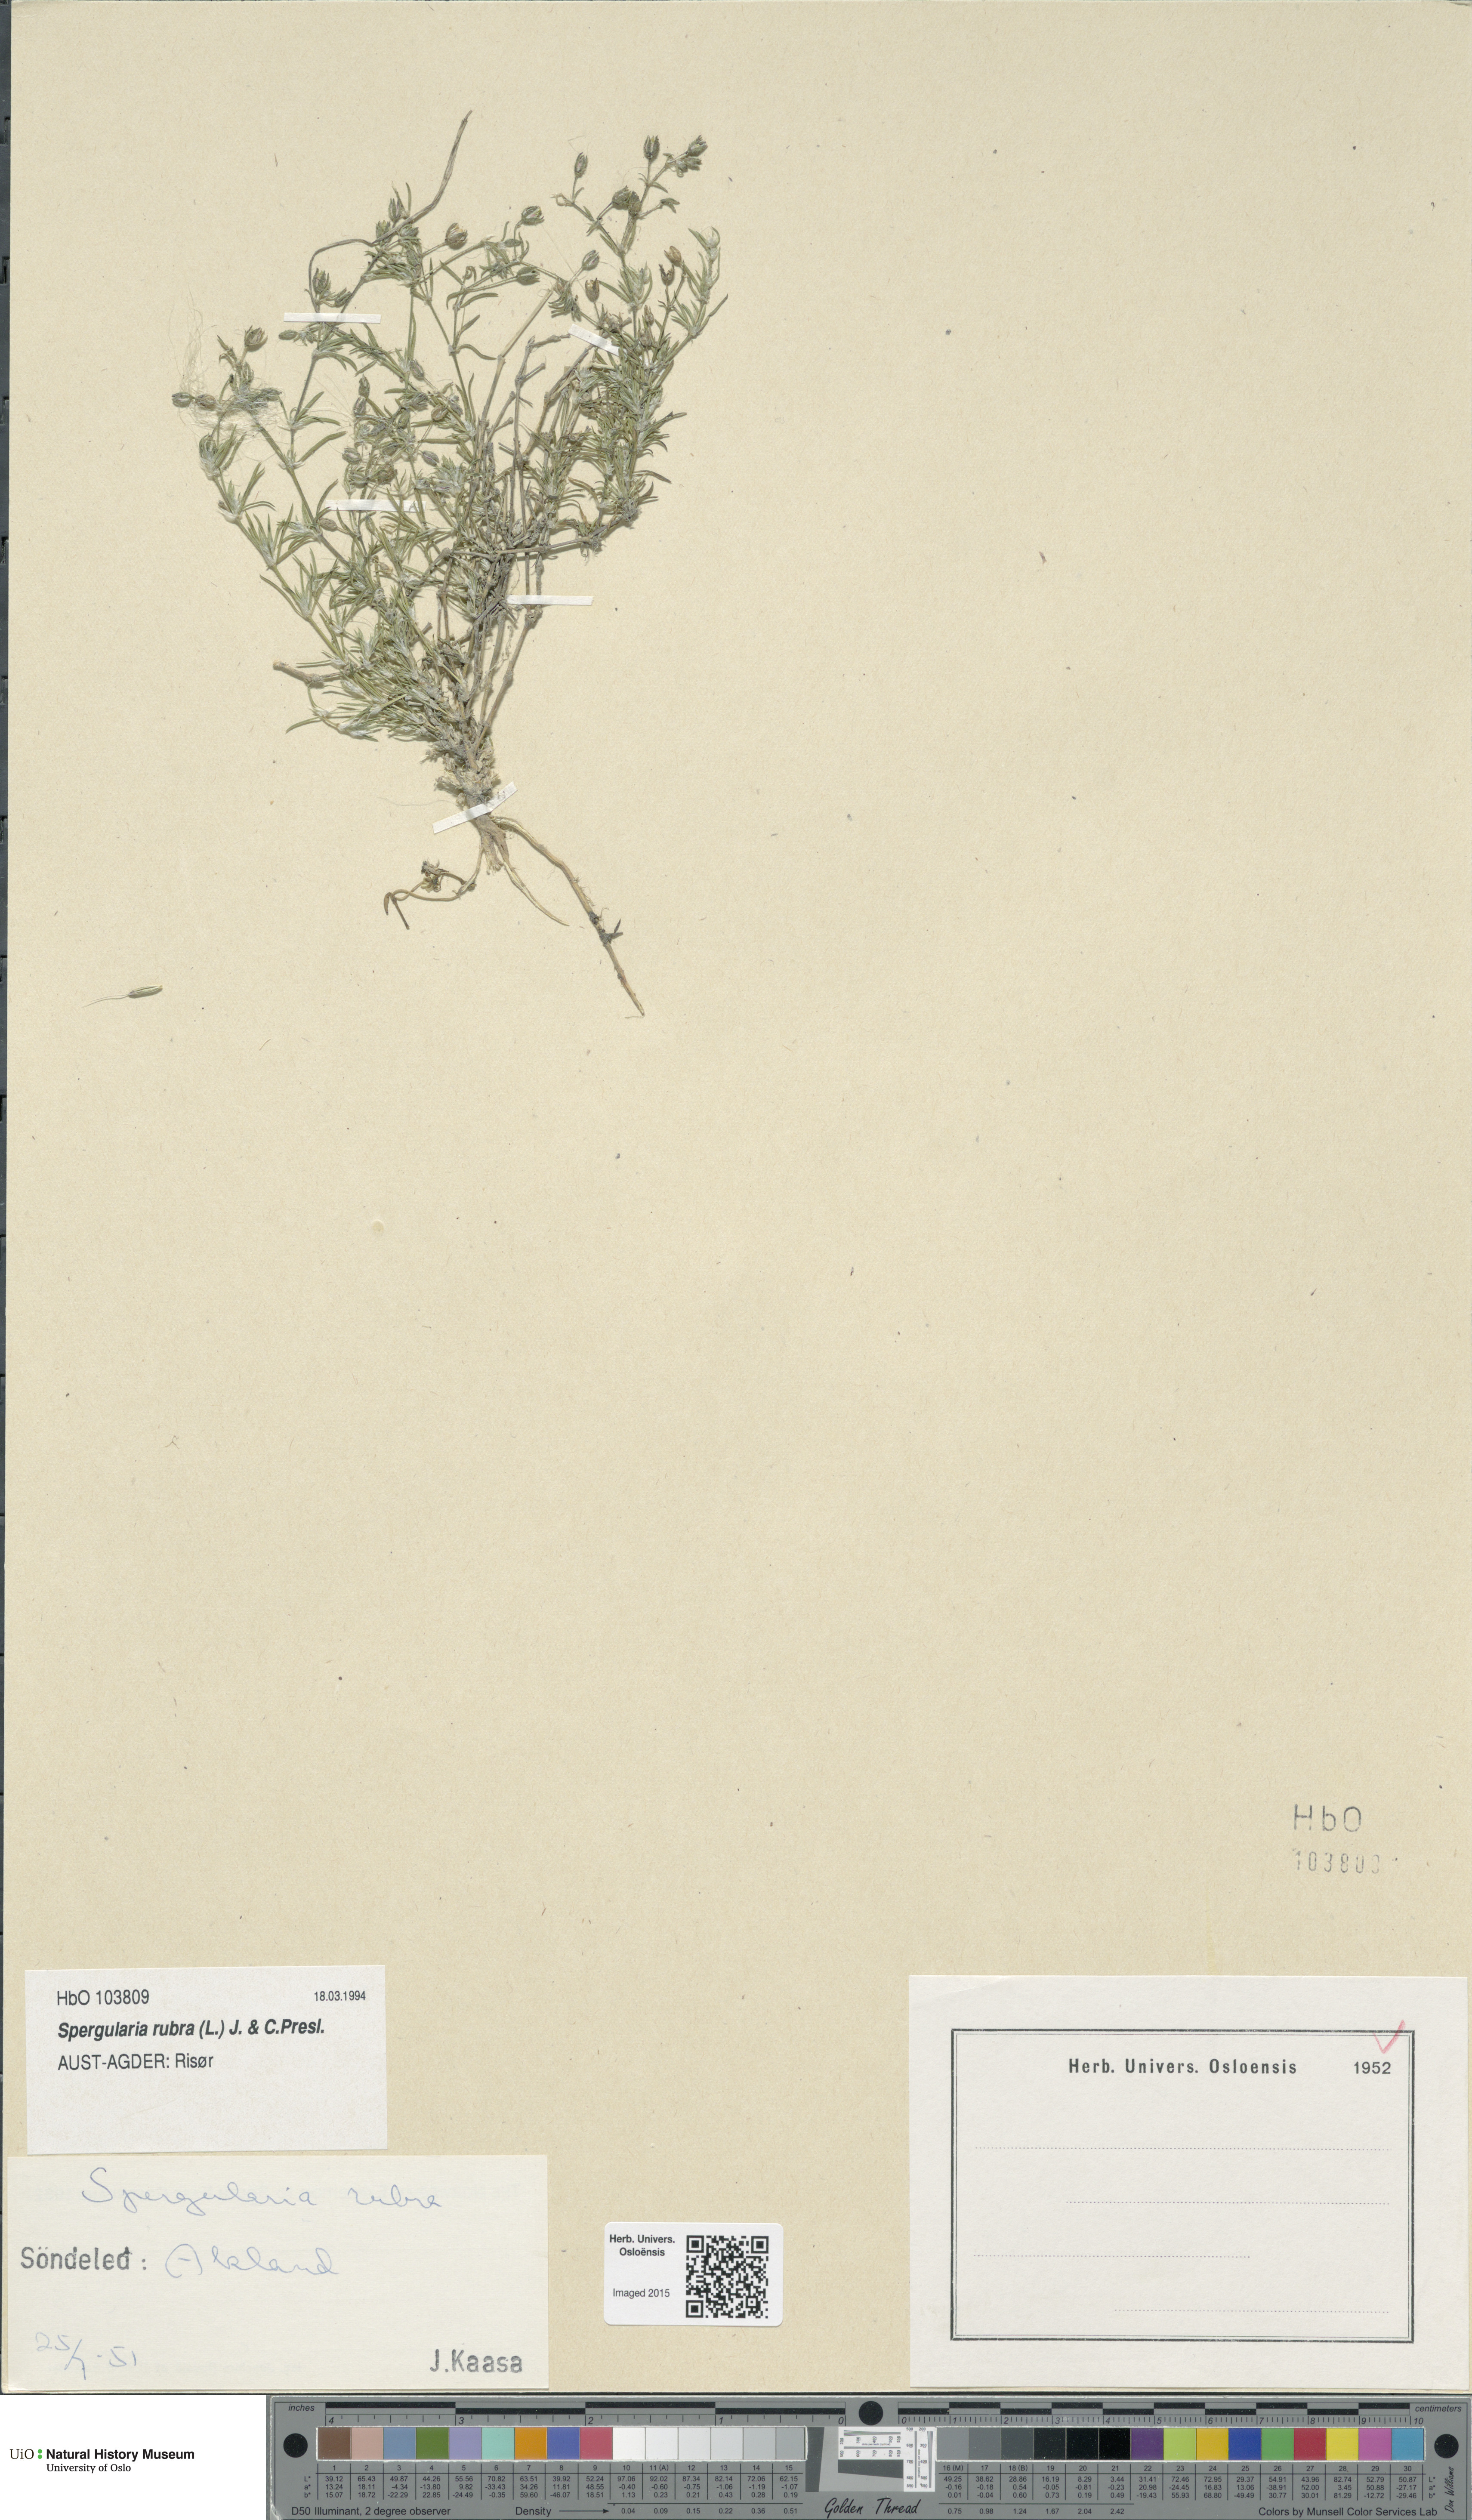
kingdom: Plantae
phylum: Tracheophyta
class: Magnoliopsida
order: Caryophyllales
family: Caryophyllaceae
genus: Spergularia
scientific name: Spergularia rubra
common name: Red sand-spurrey
